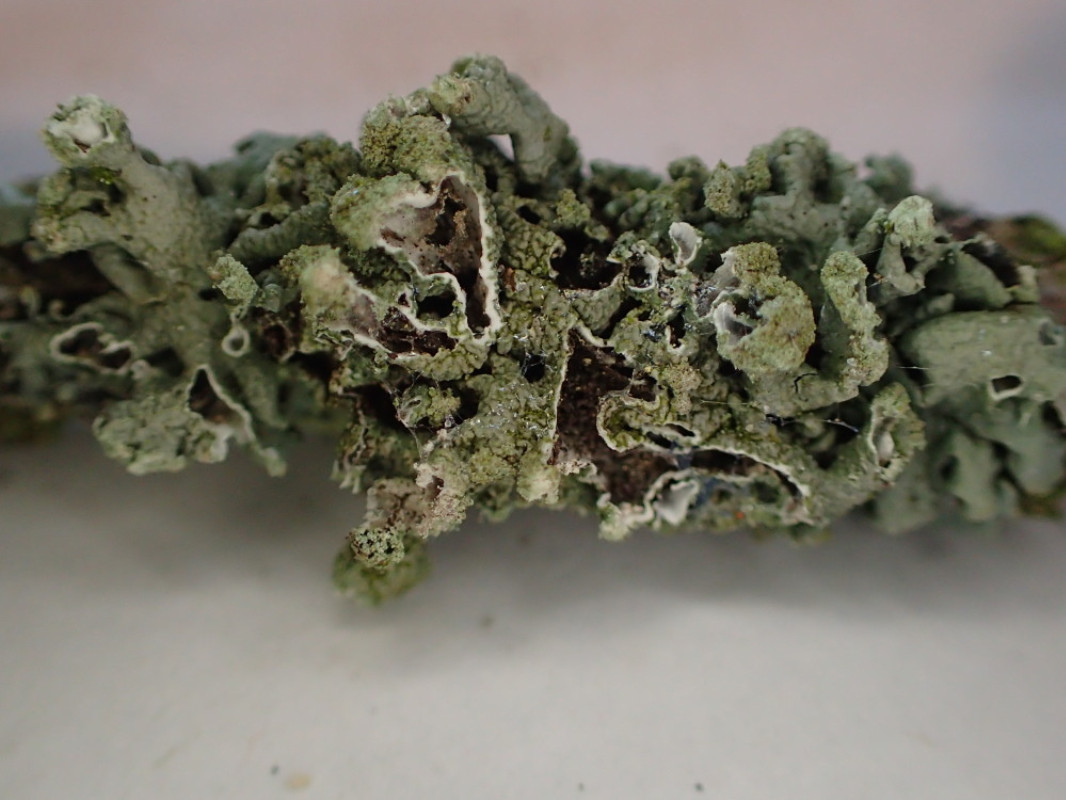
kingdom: Fungi
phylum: Ascomycota
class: Lecanoromycetes
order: Lecanorales
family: Parmeliaceae
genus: Hypogymnia
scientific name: Hypogymnia tubulosa
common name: finger-kvistlav
